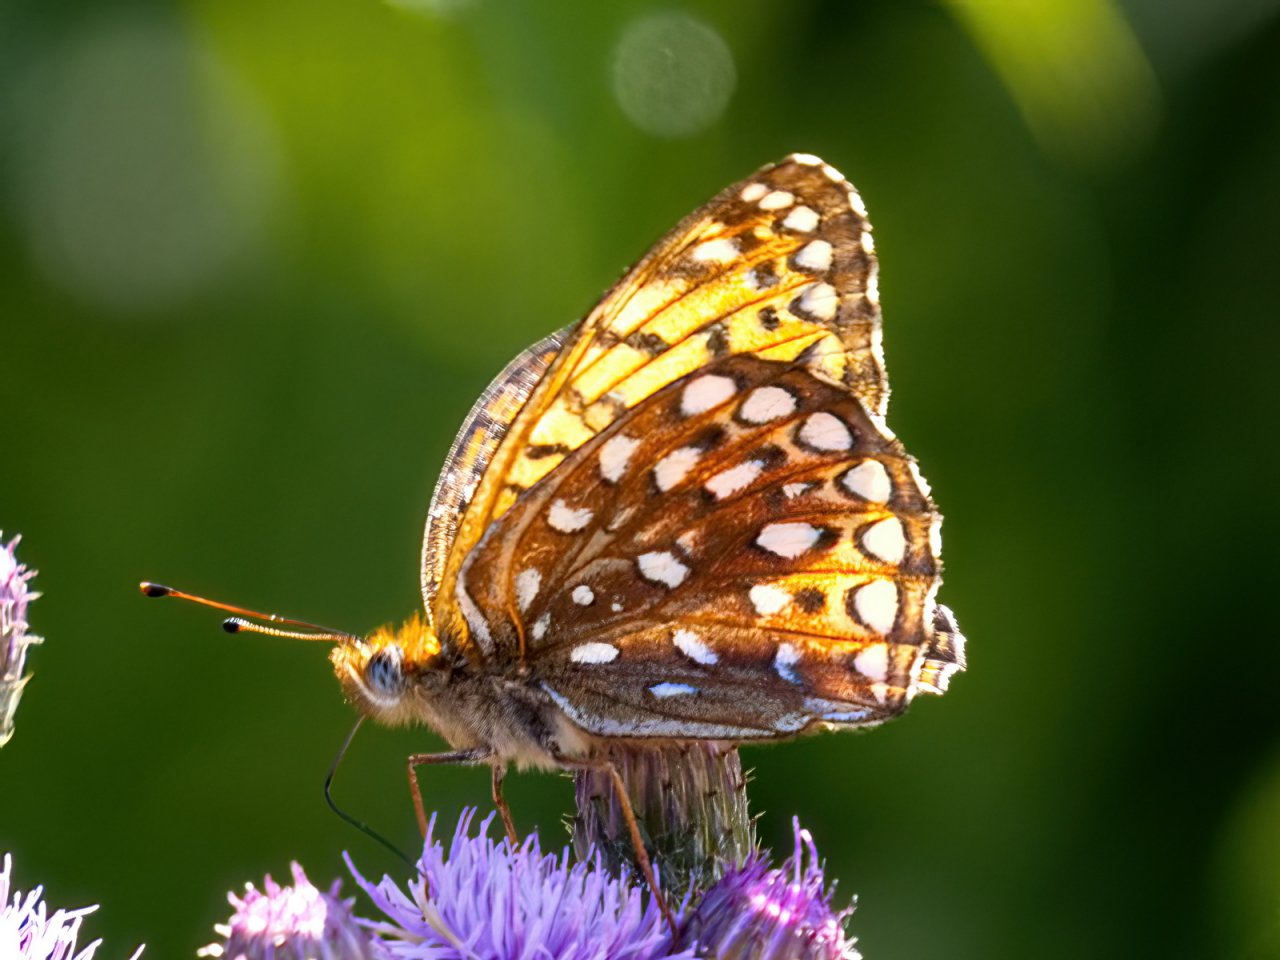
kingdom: Animalia
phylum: Arthropoda
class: Insecta
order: Lepidoptera
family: Nymphalidae
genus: Speyeria
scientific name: Speyeria atlantis
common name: Atlantis Fritillary
